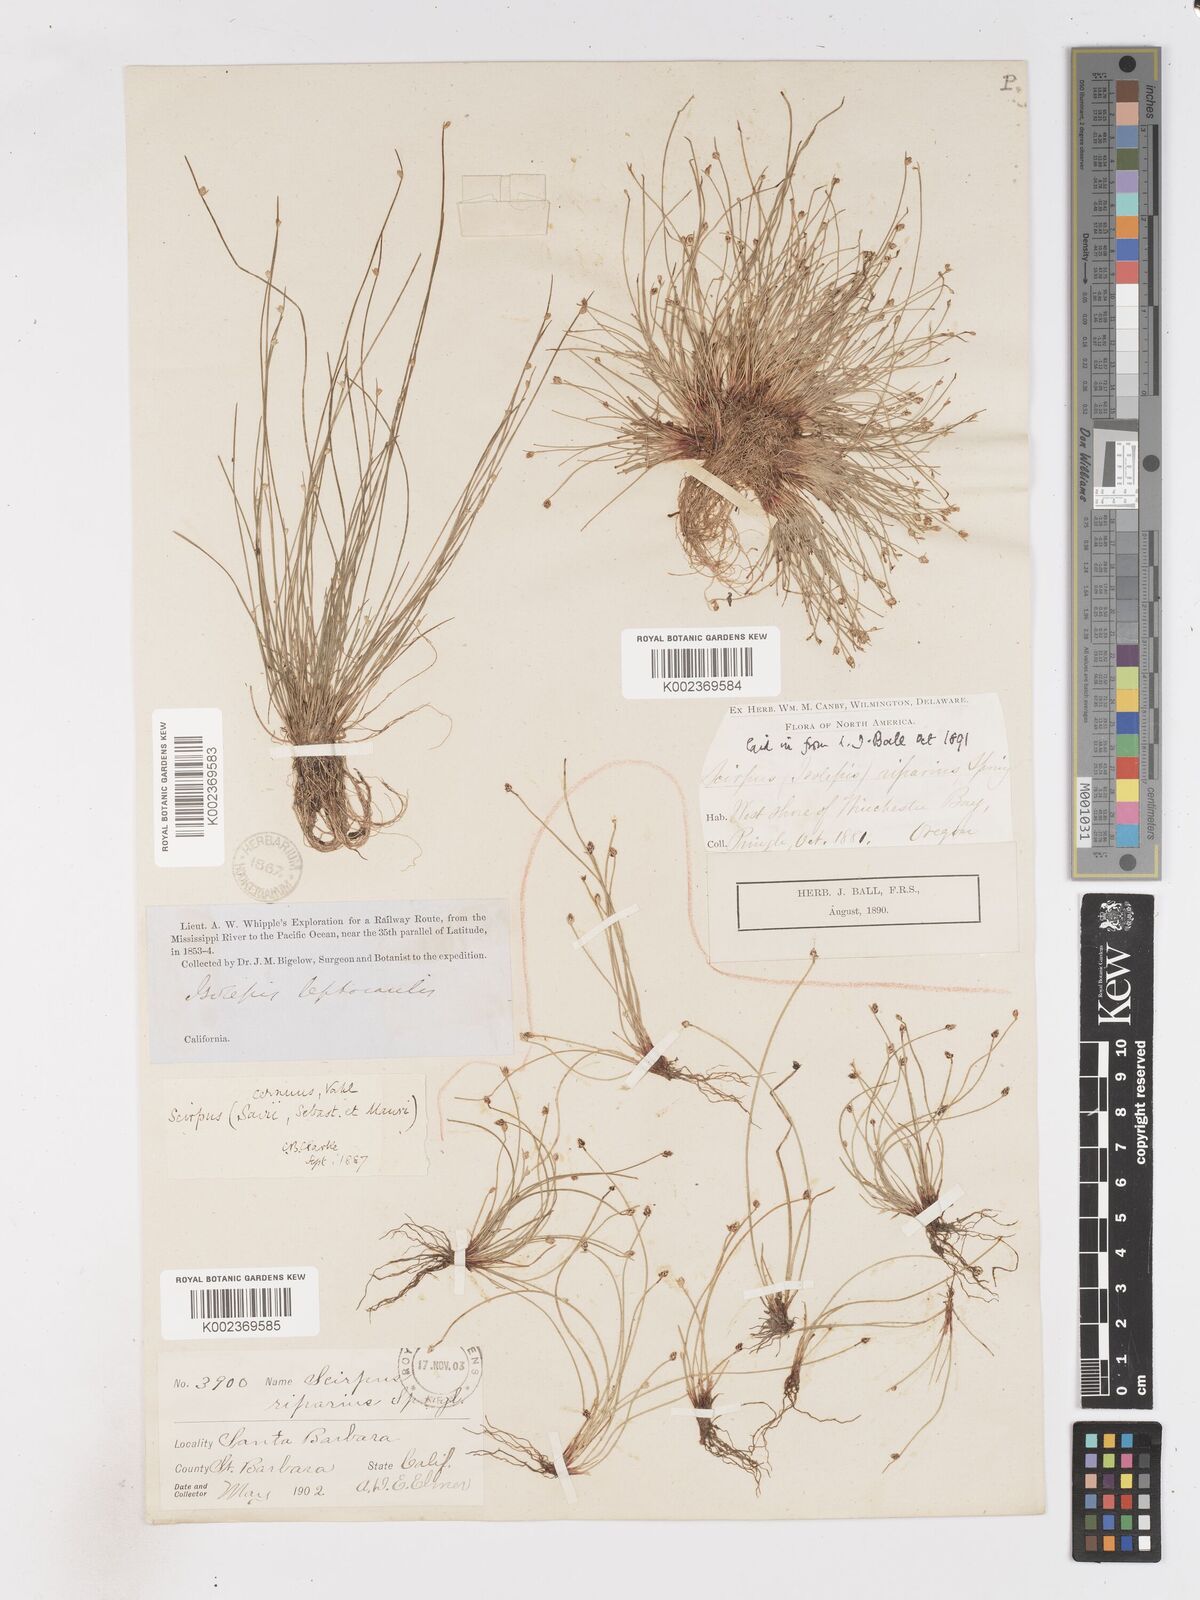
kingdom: Plantae
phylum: Tracheophyta
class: Liliopsida
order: Poales
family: Cyperaceae
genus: Isolepis
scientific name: Isolepis cernua
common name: Slender club-rush
